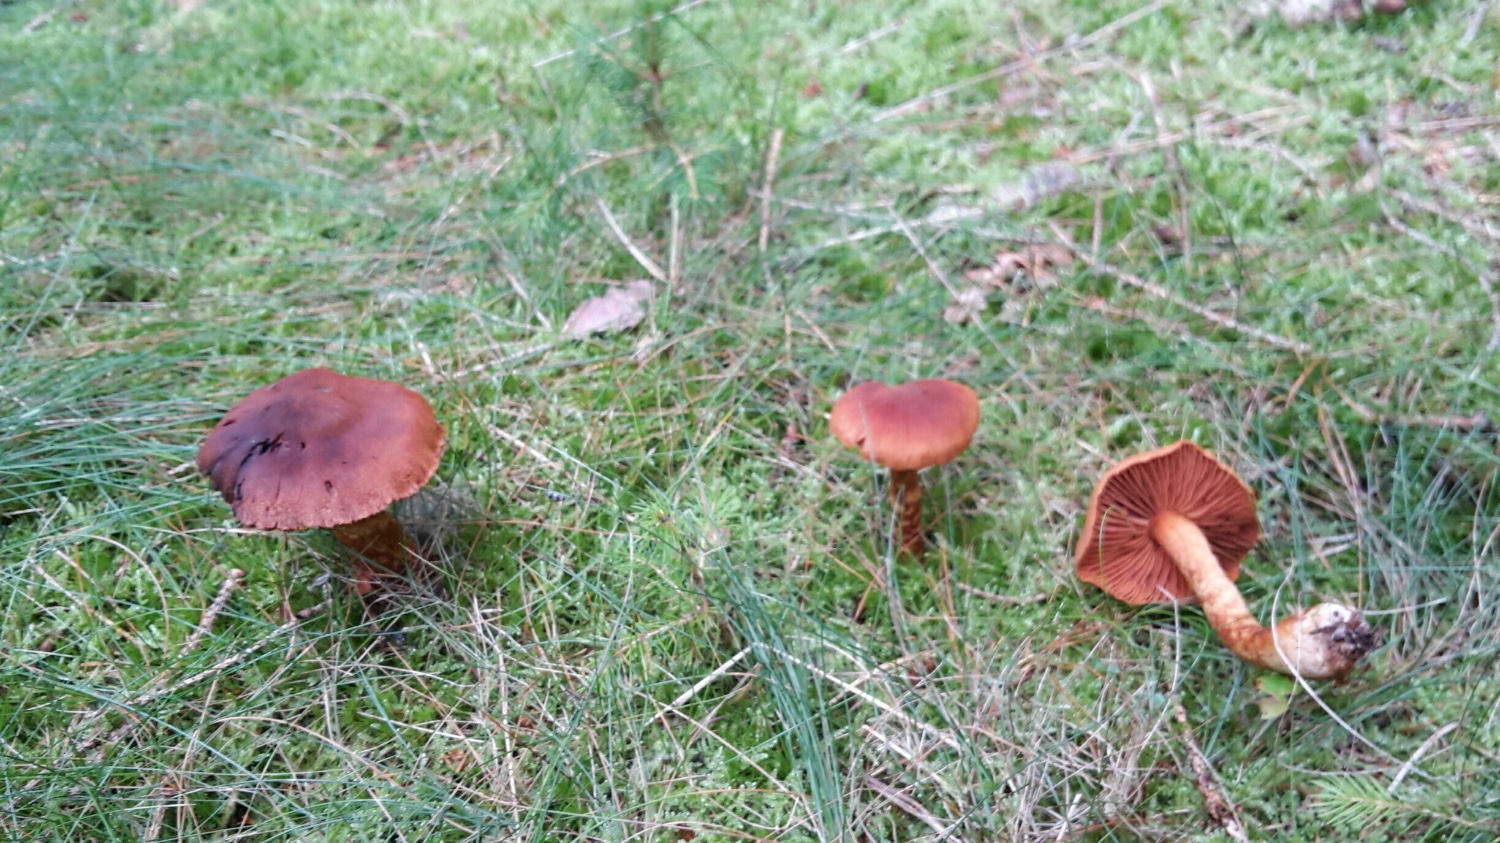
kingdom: Fungi
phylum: Basidiomycota
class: Agaricomycetes
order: Agaricales
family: Cortinariaceae
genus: Cortinarius
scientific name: Cortinarius rubellus
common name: puklet gift-slørhat
